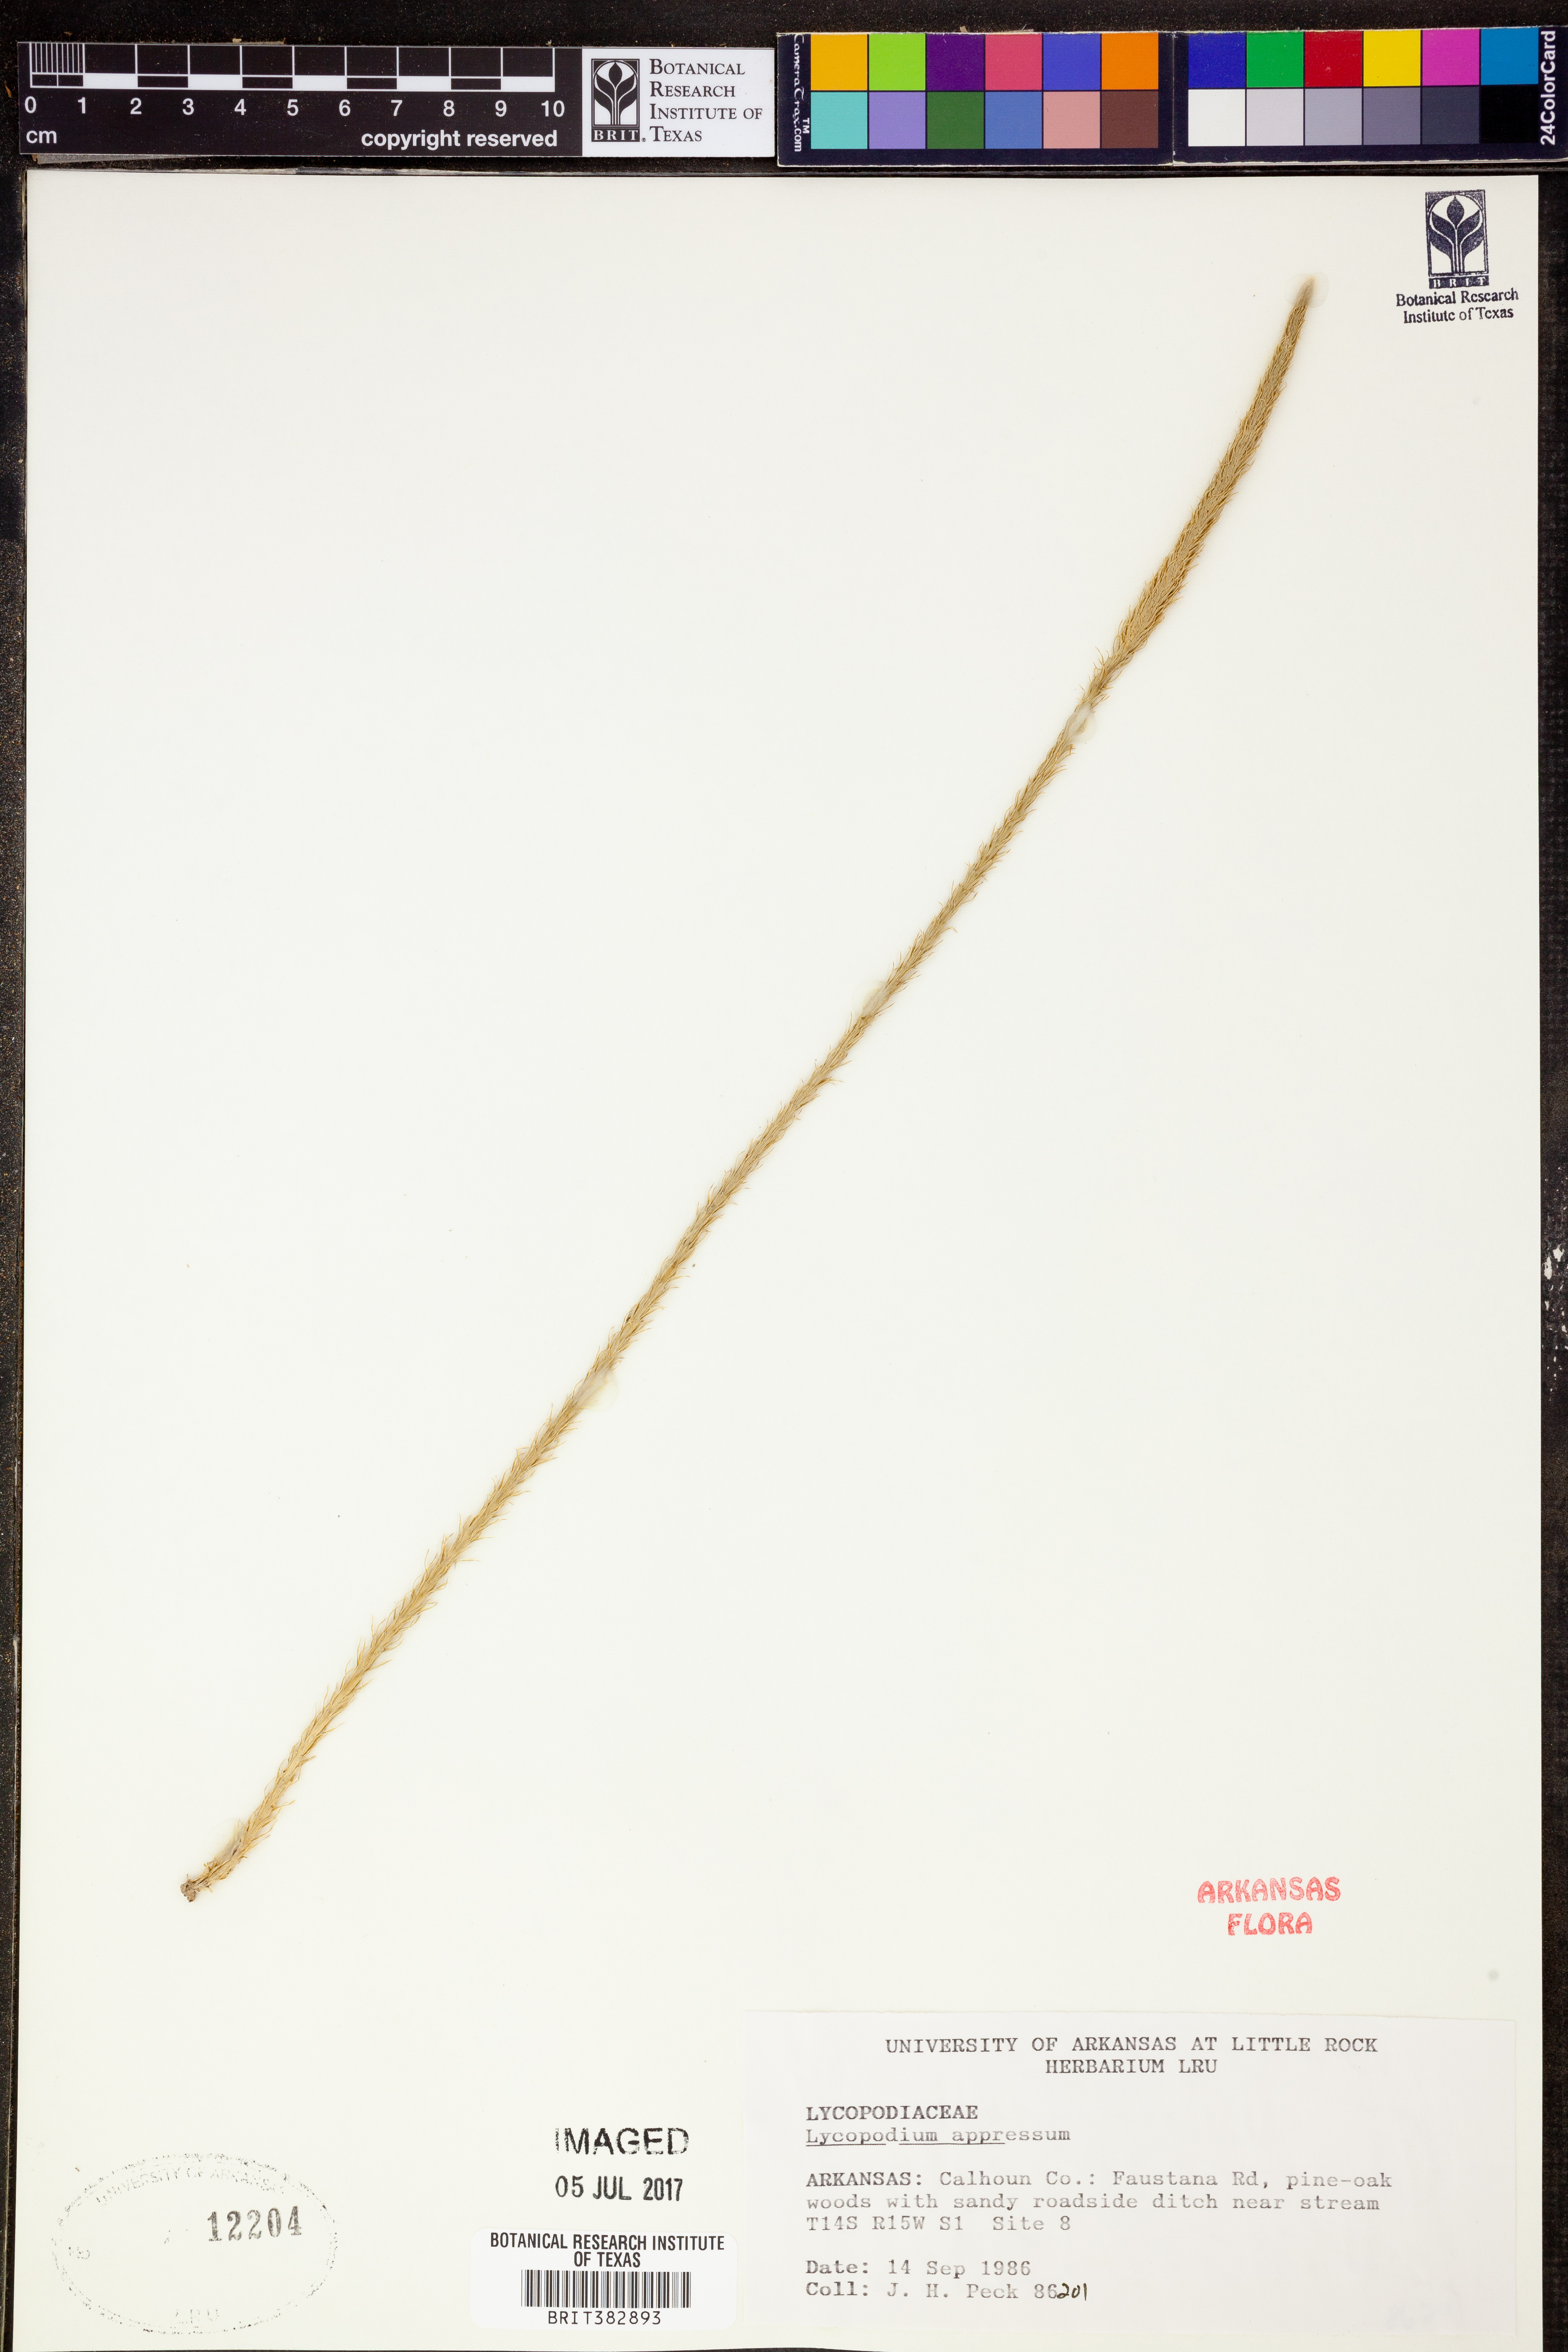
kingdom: Plantae
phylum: Tracheophyta
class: Lycopodiopsida
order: Lycopodiales
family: Lycopodiaceae
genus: Lycopodiella
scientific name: Lycopodiella appressa
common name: Appressed bog clubmoss
